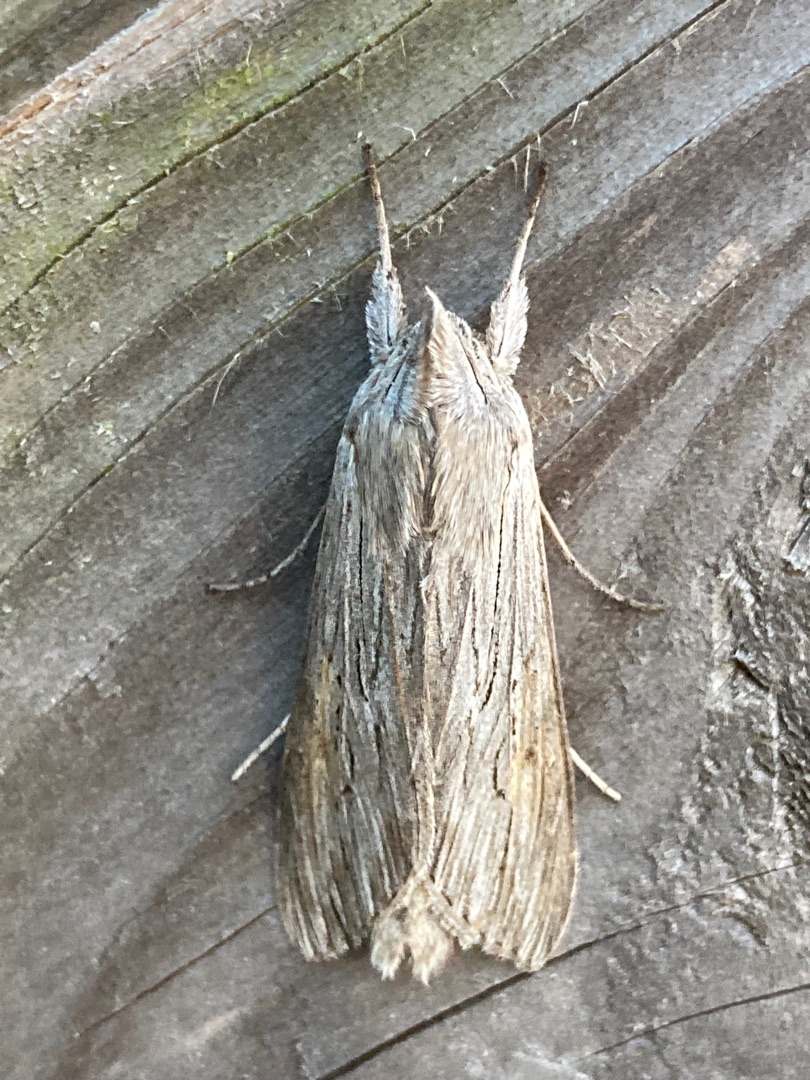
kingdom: Animalia
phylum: Arthropoda
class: Insecta
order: Lepidoptera
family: Noctuidae
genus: Cucullia
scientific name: Cucullia umbratica
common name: Grå hætteugle
